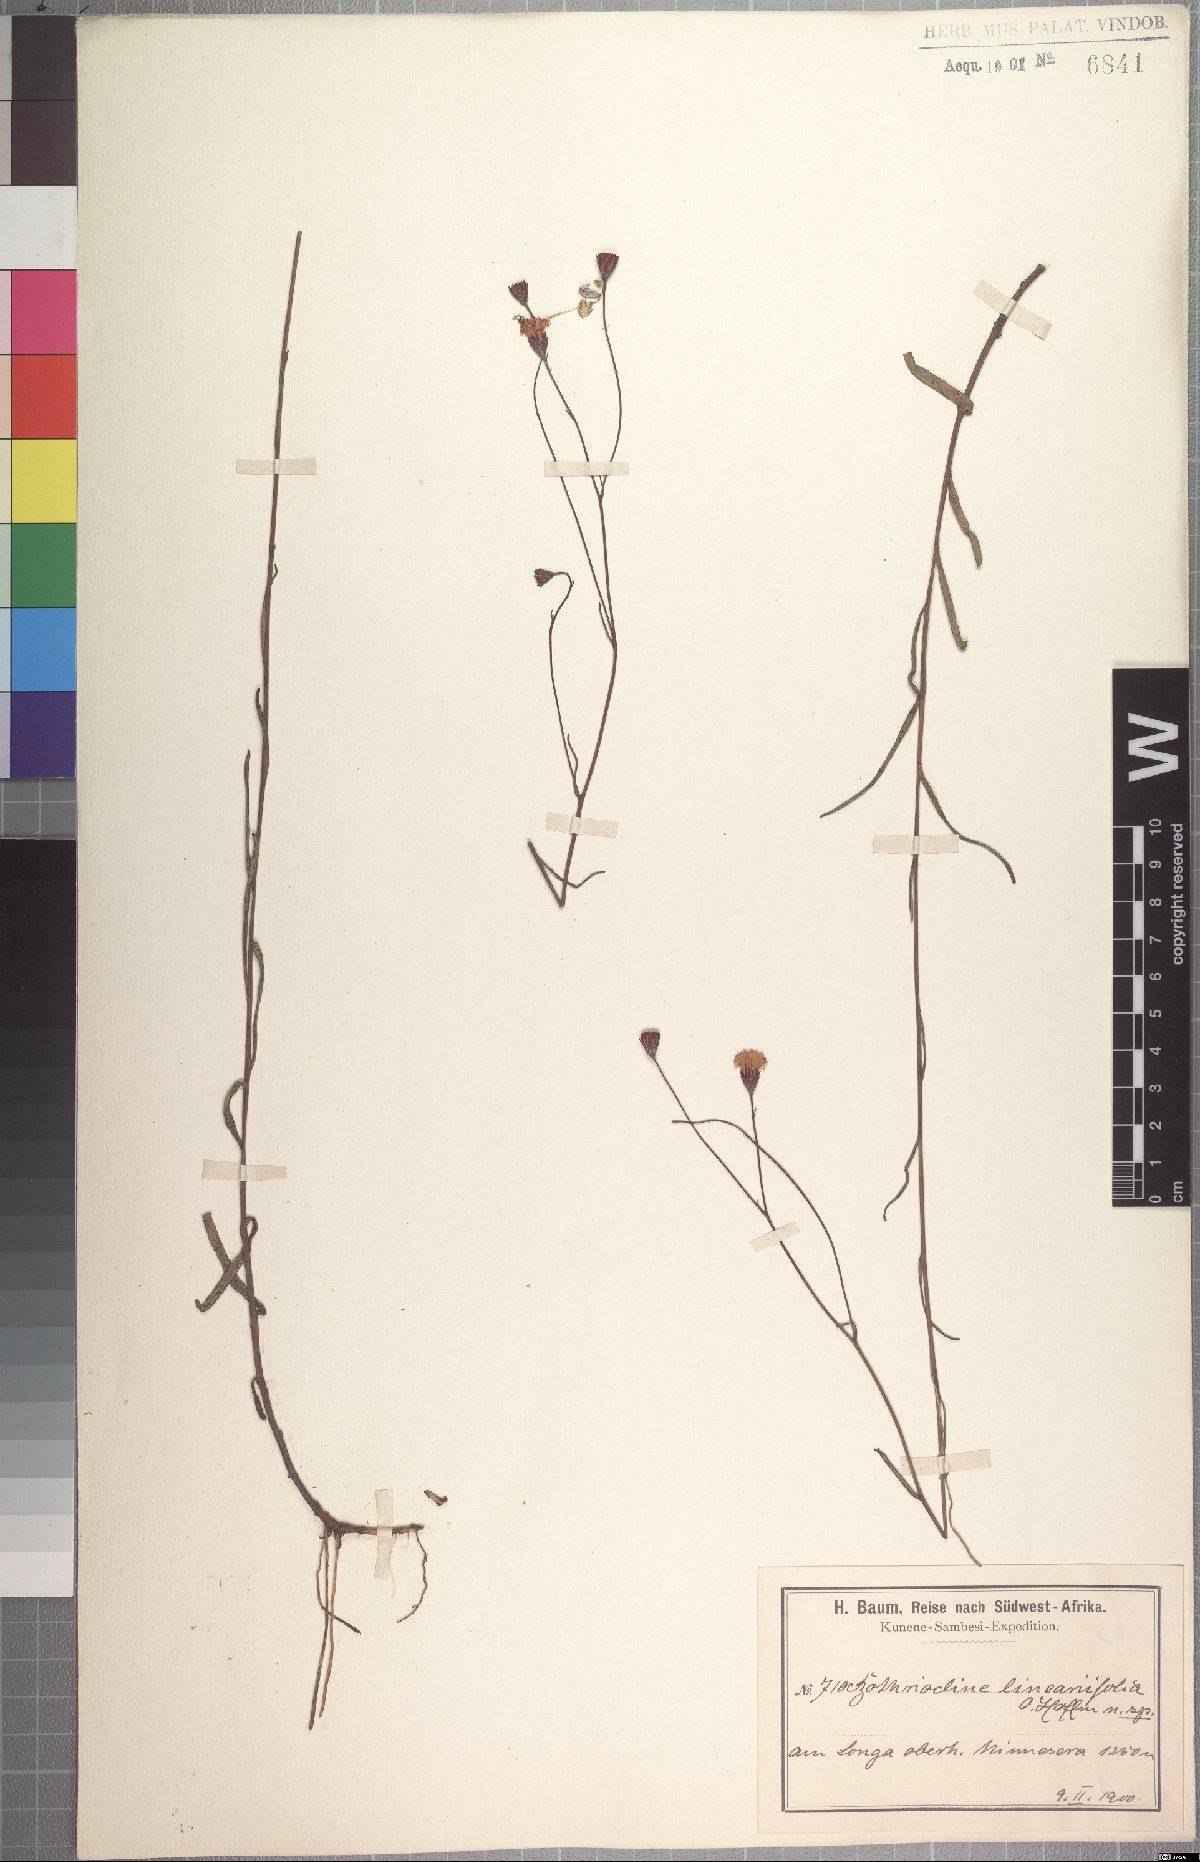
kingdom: Plantae
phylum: Tracheophyta
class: Magnoliopsida
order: Asterales
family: Asteraceae
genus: Erlangea
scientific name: Erlangea linearifolia
